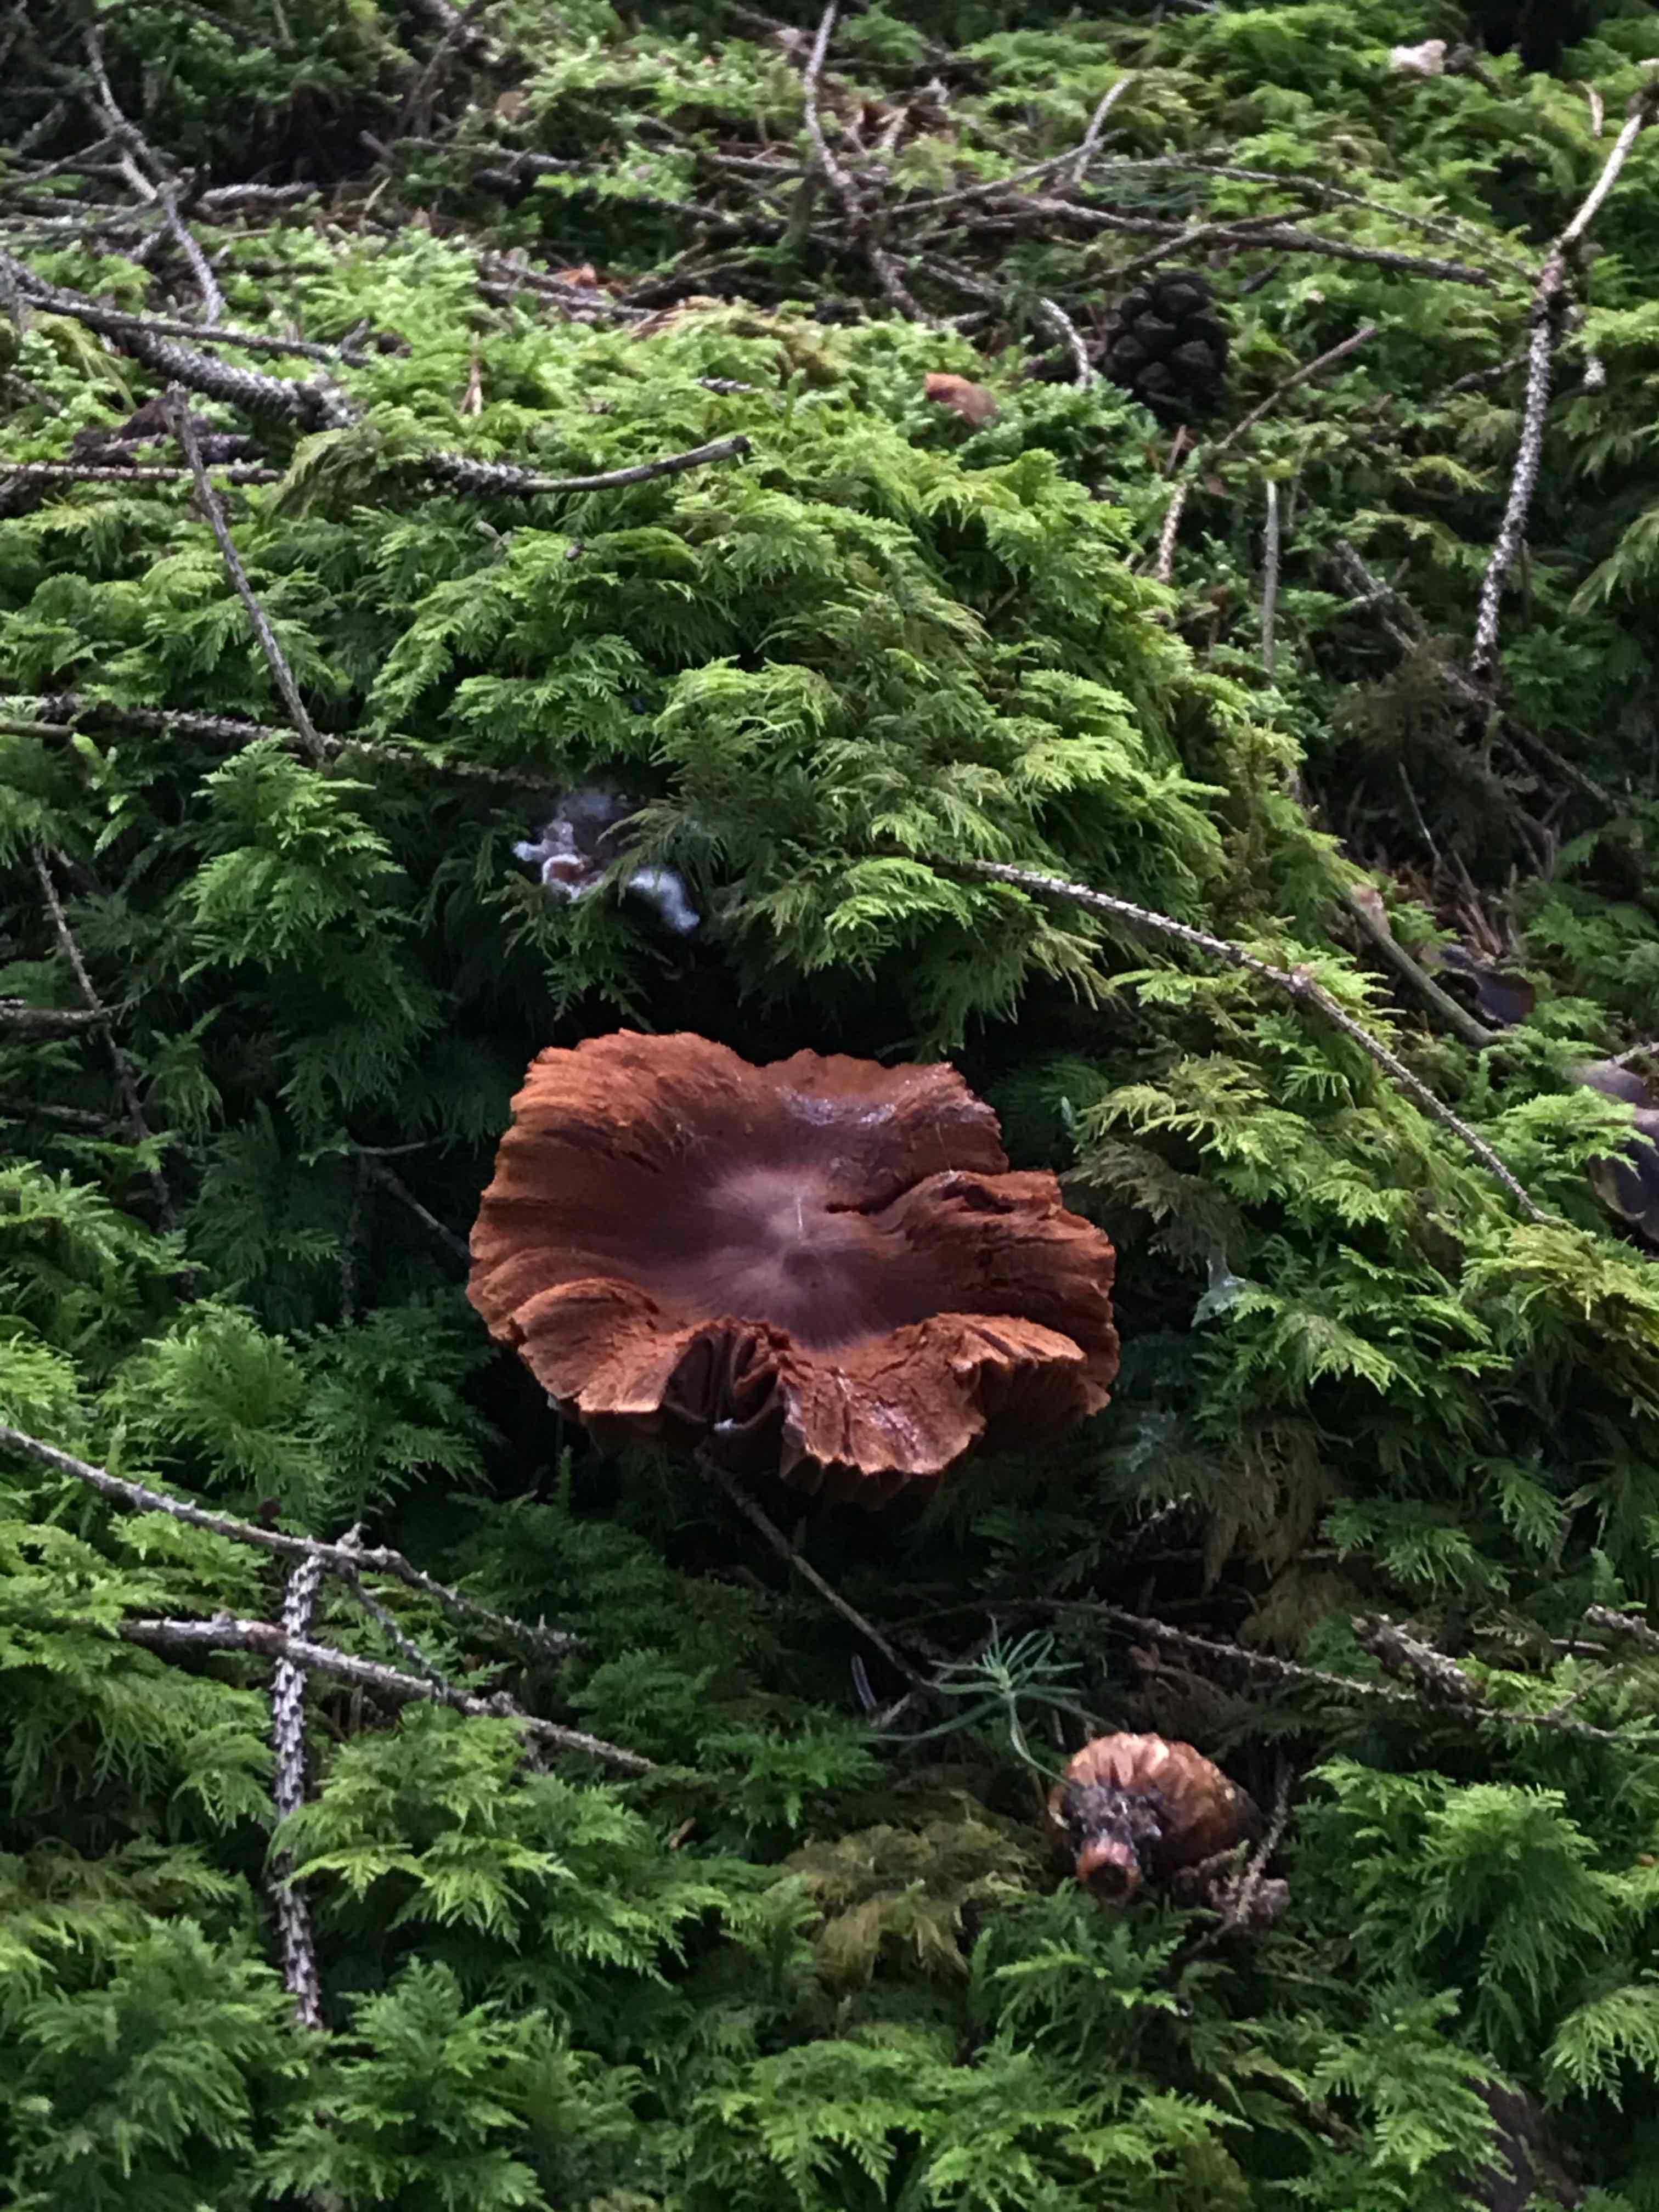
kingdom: Fungi
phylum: Basidiomycota
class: Agaricomycetes
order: Agaricales
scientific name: Agaricales
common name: champignonordenen
